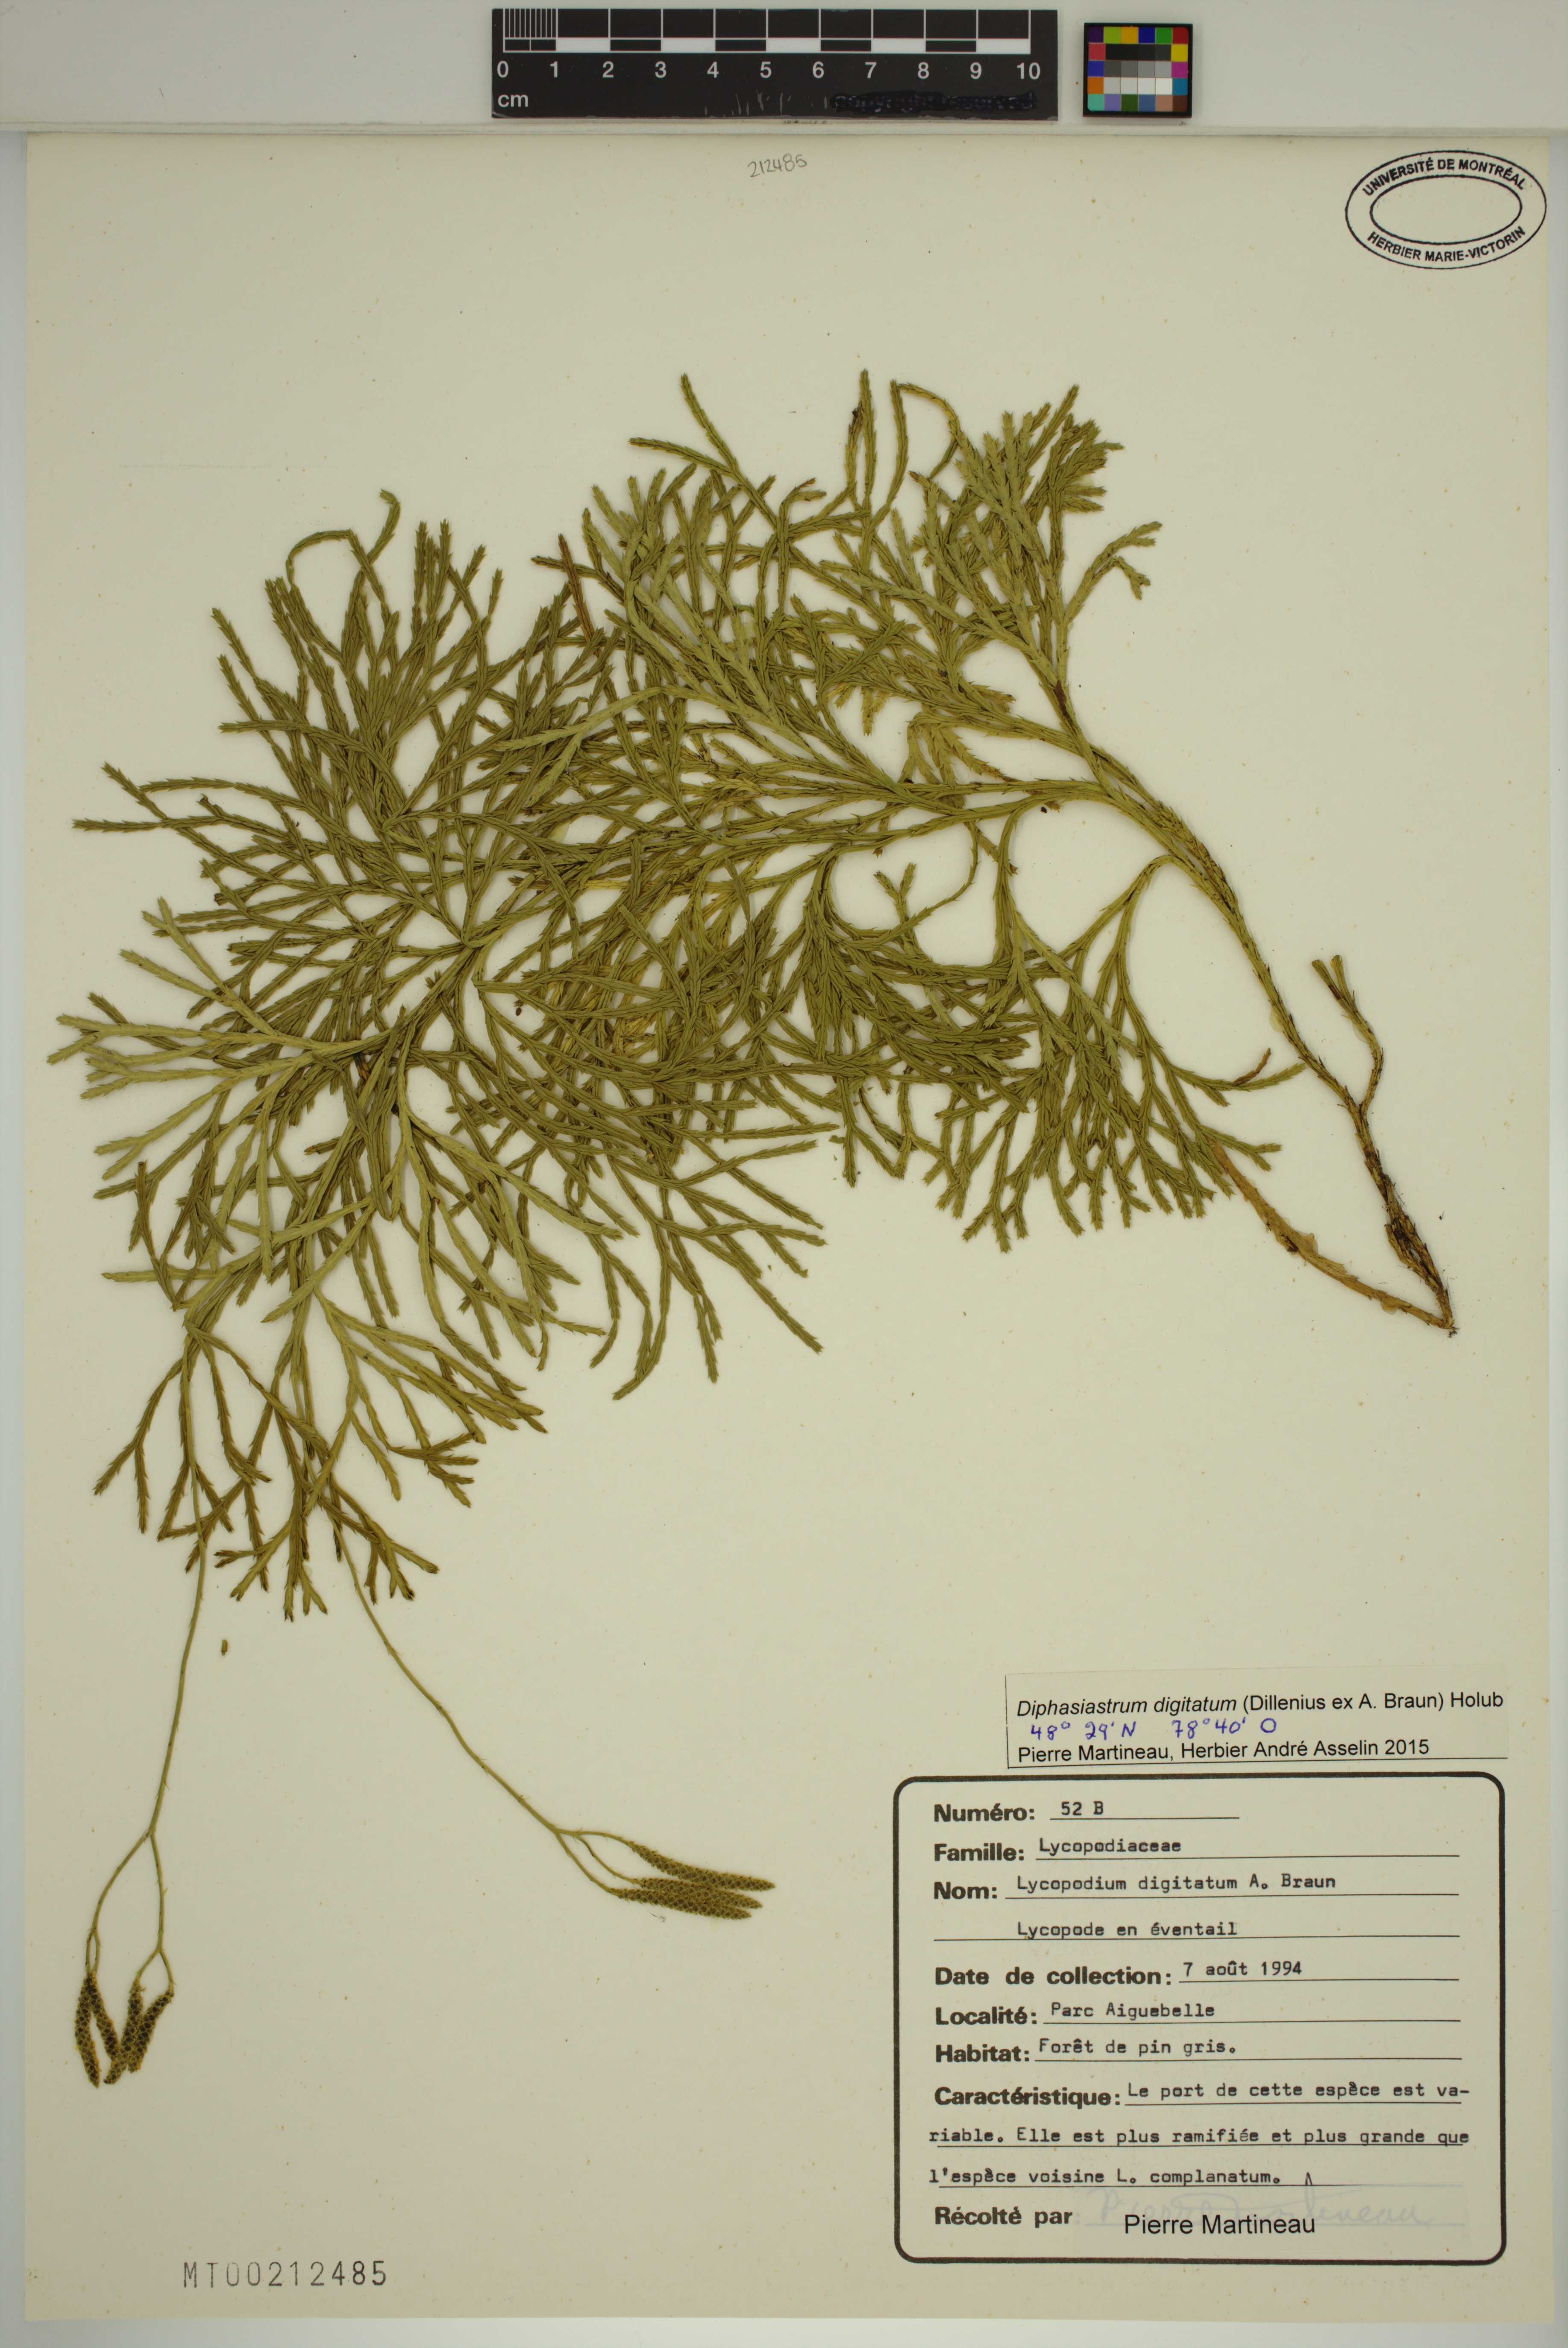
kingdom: Plantae
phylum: Tracheophyta
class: Lycopodiopsida
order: Lycopodiales
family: Lycopodiaceae
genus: Diphasiastrum
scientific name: Diphasiastrum digitatum
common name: Southern running-pine
